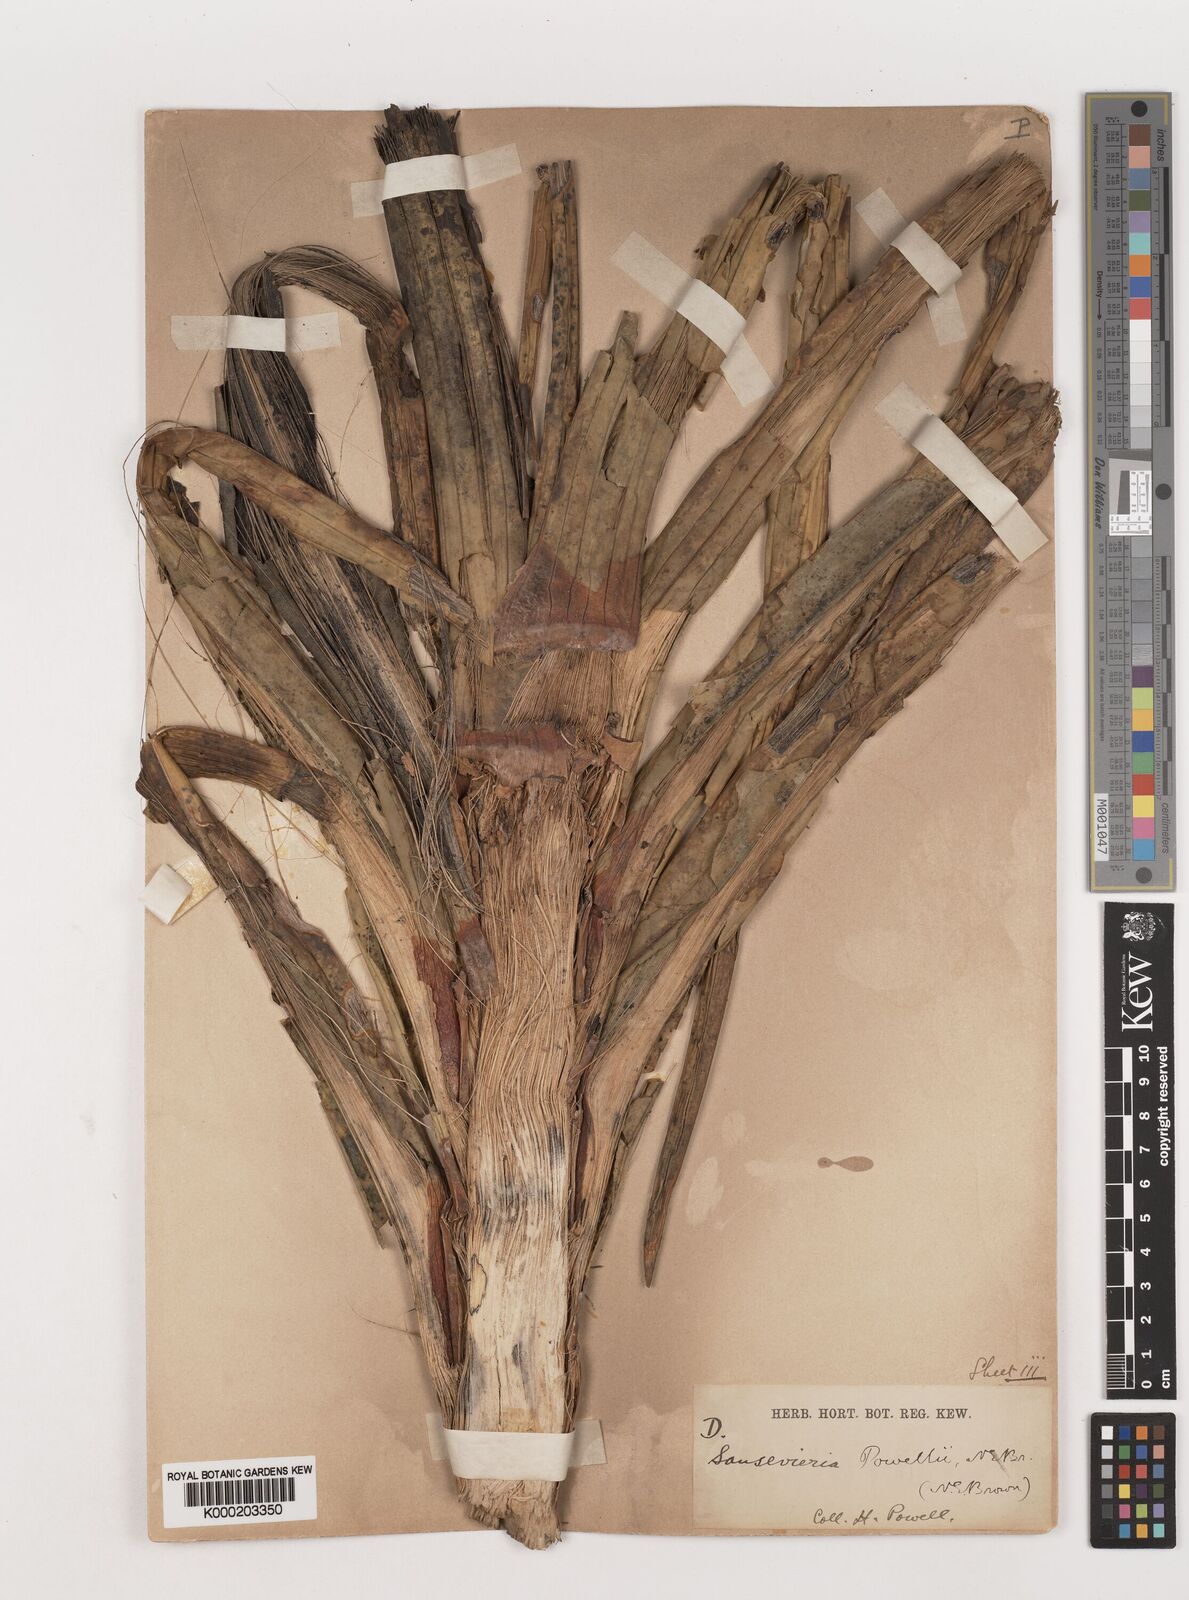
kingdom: Plantae
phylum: Tracheophyta
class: Liliopsida
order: Asparagales
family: Asparagaceae
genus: Dracaena
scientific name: Dracaena powellii
